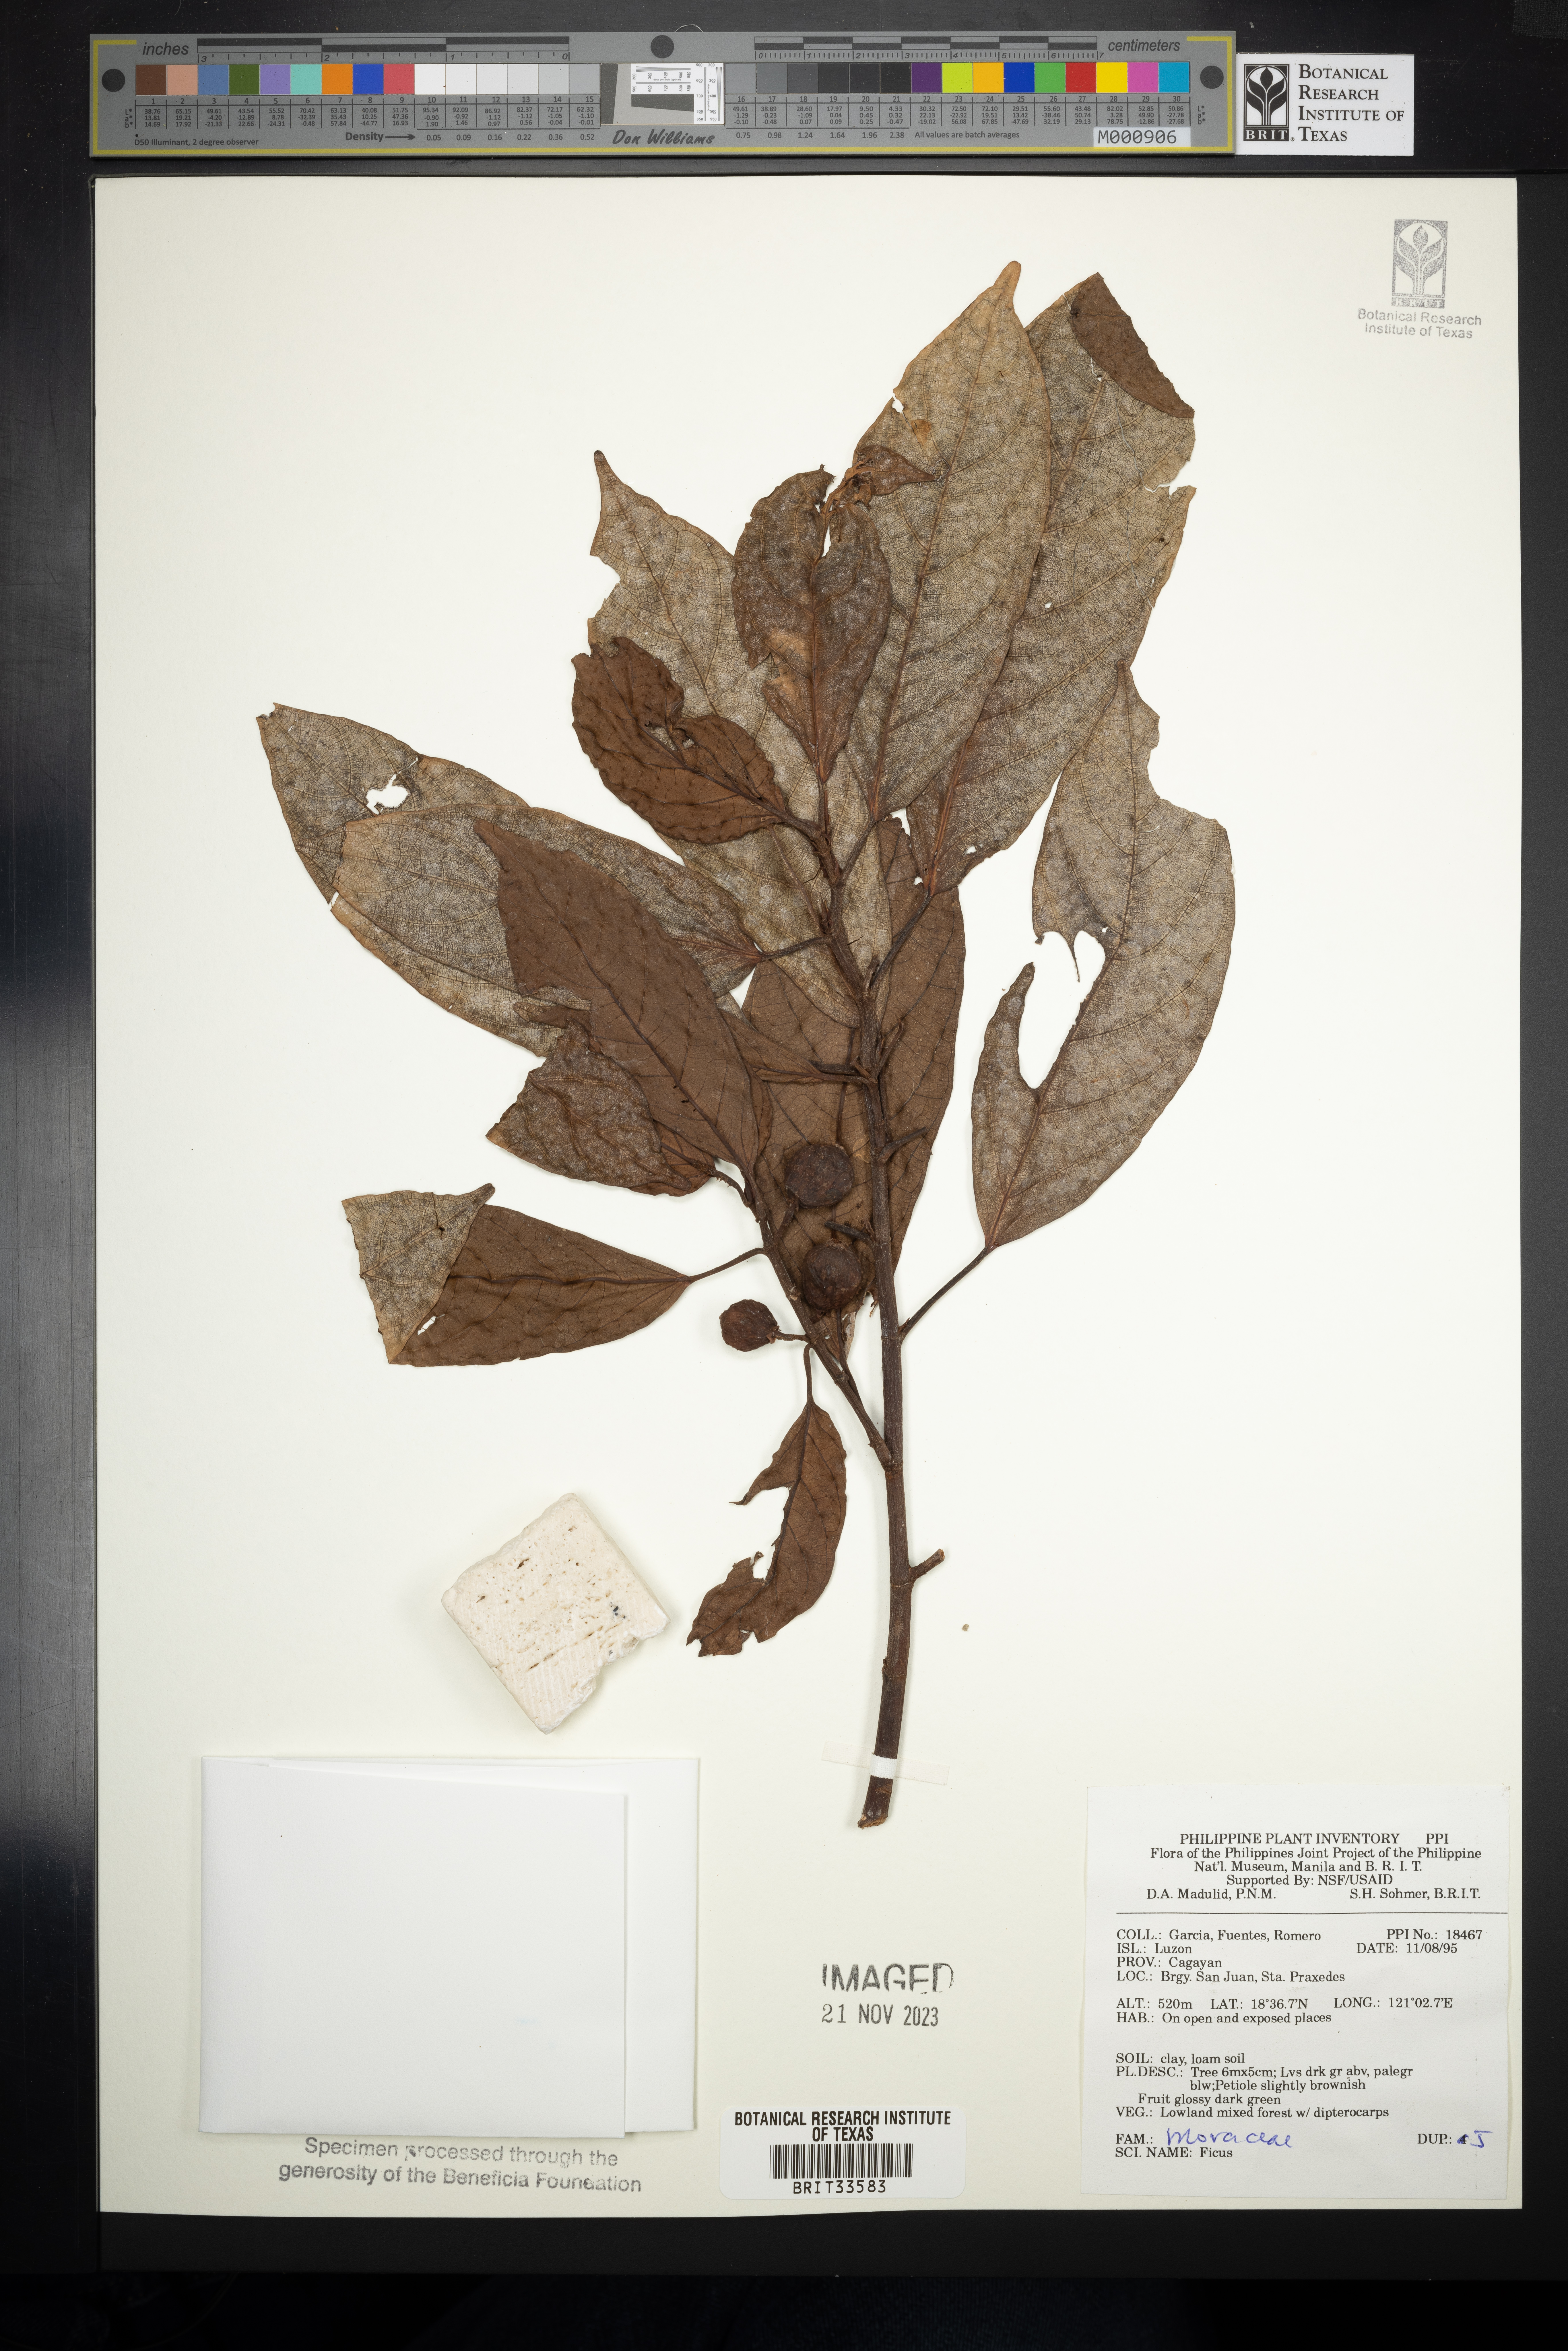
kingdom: Plantae
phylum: Tracheophyta
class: Magnoliopsida
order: Rosales
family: Moraceae
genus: Ficus
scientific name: Ficus
